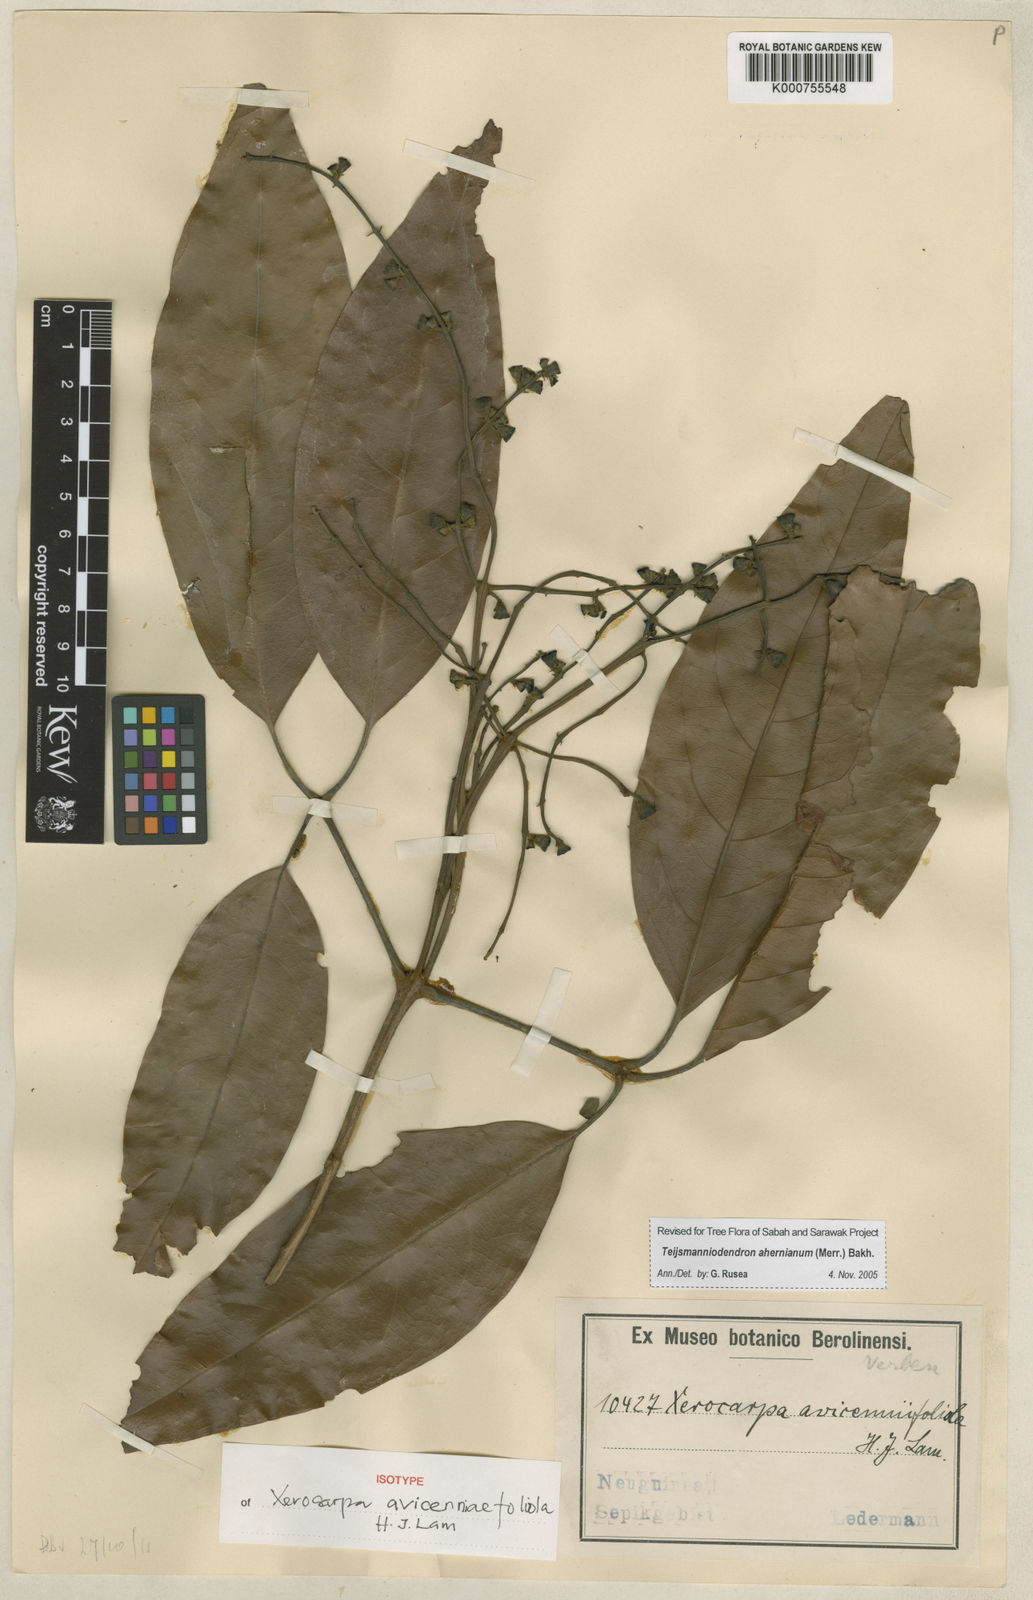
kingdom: Plantae
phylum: Tracheophyta
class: Magnoliopsida
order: Lamiales
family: Lamiaceae
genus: Teijsmanniodendron
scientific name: Teijsmanniodendron ahernianum
